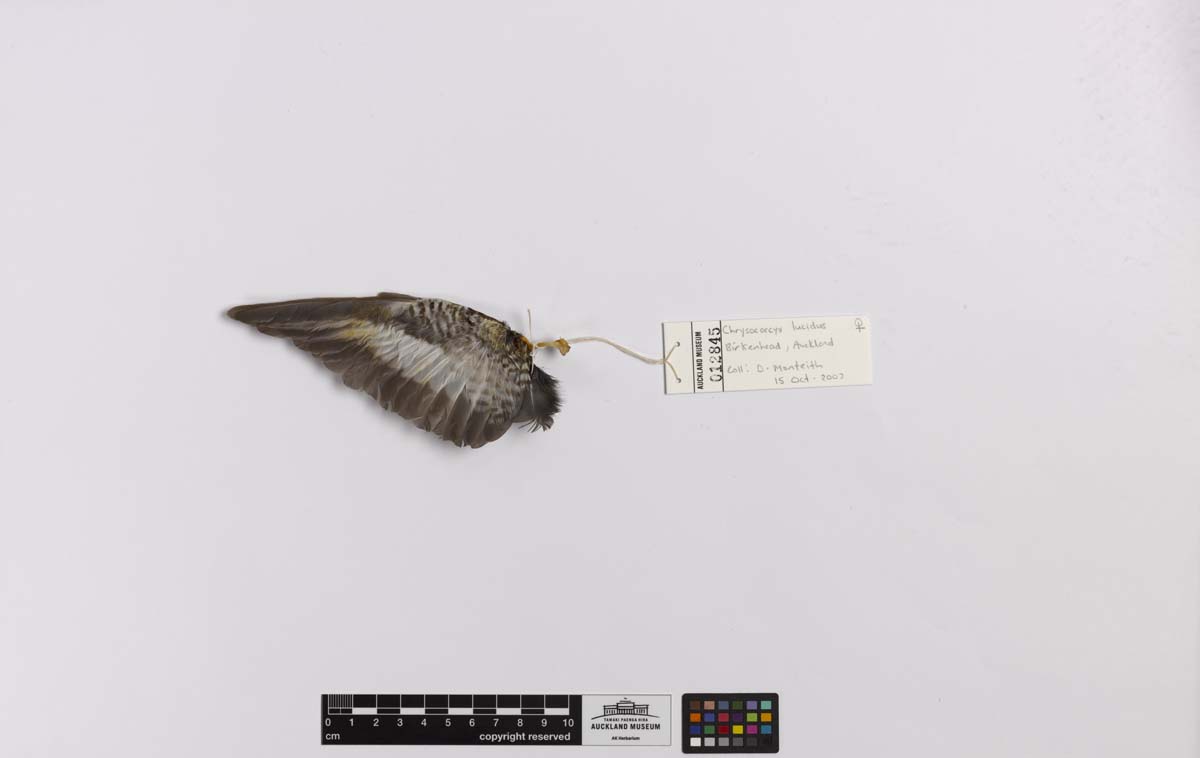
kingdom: Animalia
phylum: Chordata
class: Aves
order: Cuculiformes
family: Cuculidae
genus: Chrysococcyx
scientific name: Chrysococcyx lucidus
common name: Shining bronze cuckoo
